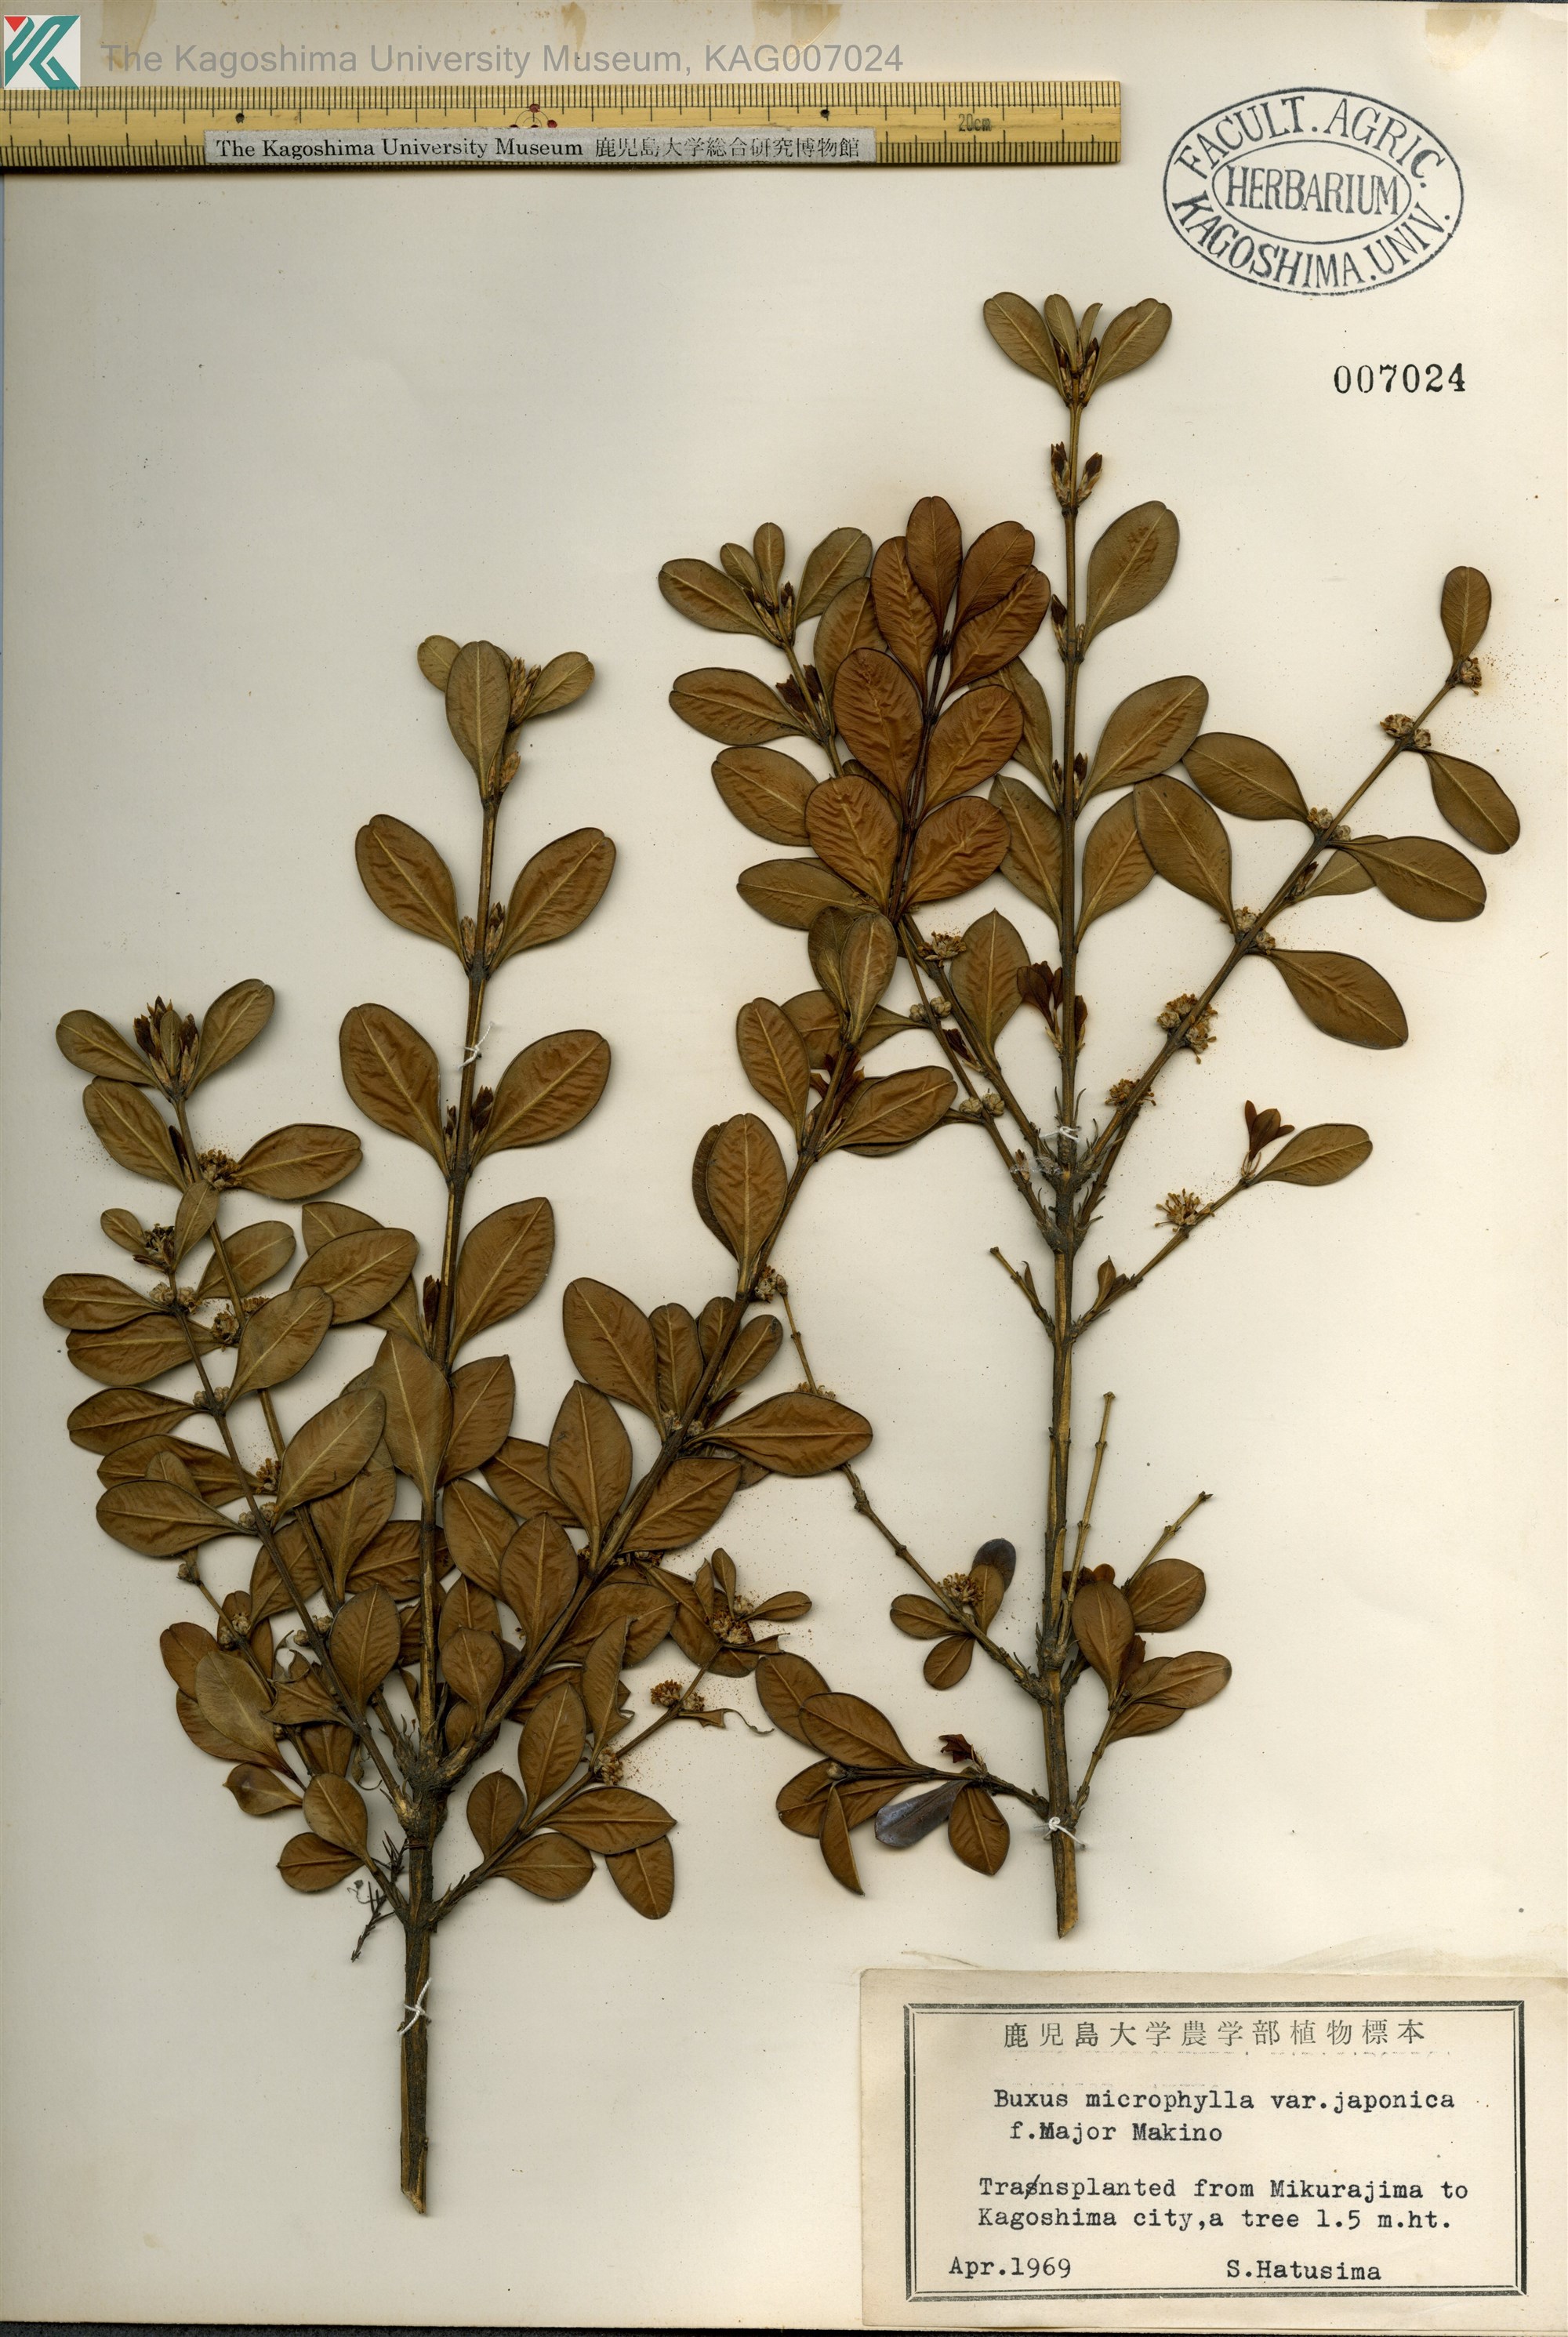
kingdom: Plantae
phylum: Tracheophyta
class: Magnoliopsida
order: Buxales
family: Buxaceae
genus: Buxus
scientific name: Buxus microphylla
